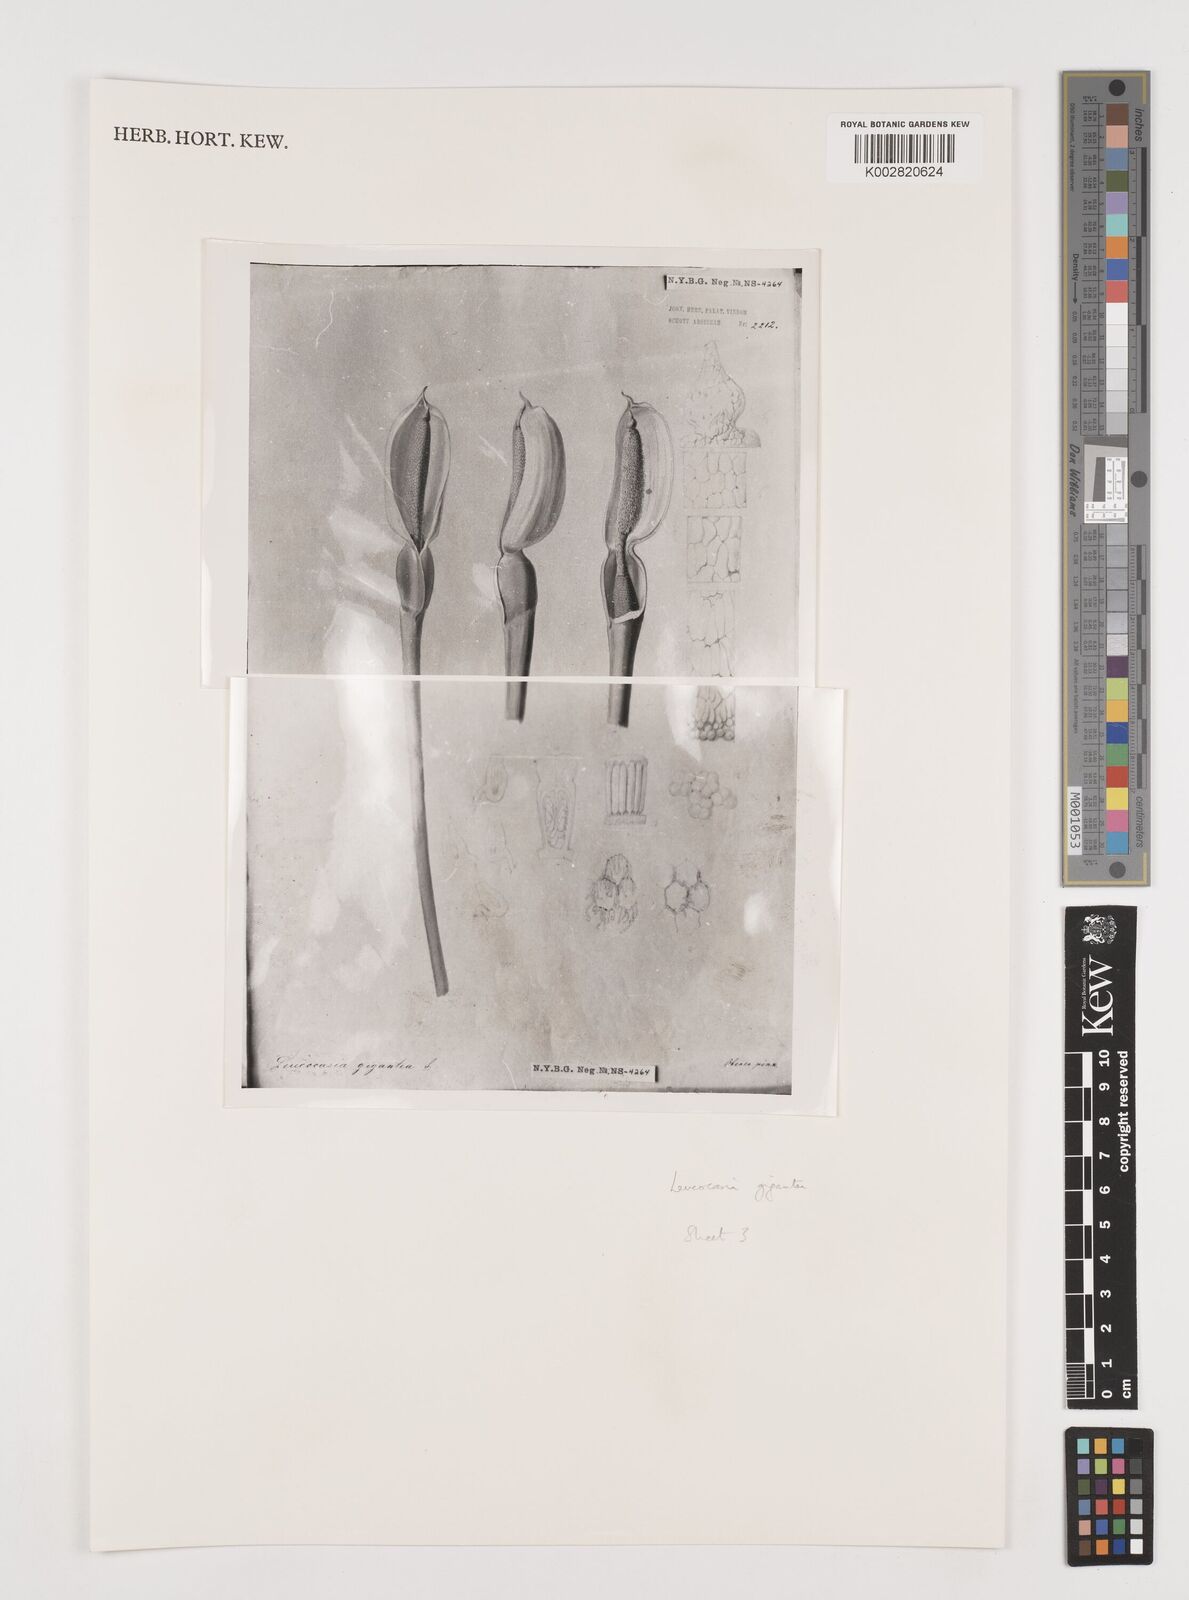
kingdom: Plantae
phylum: Tracheophyta
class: Liliopsida
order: Alismatales
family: Araceae
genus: Colocasia
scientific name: Colocasia
